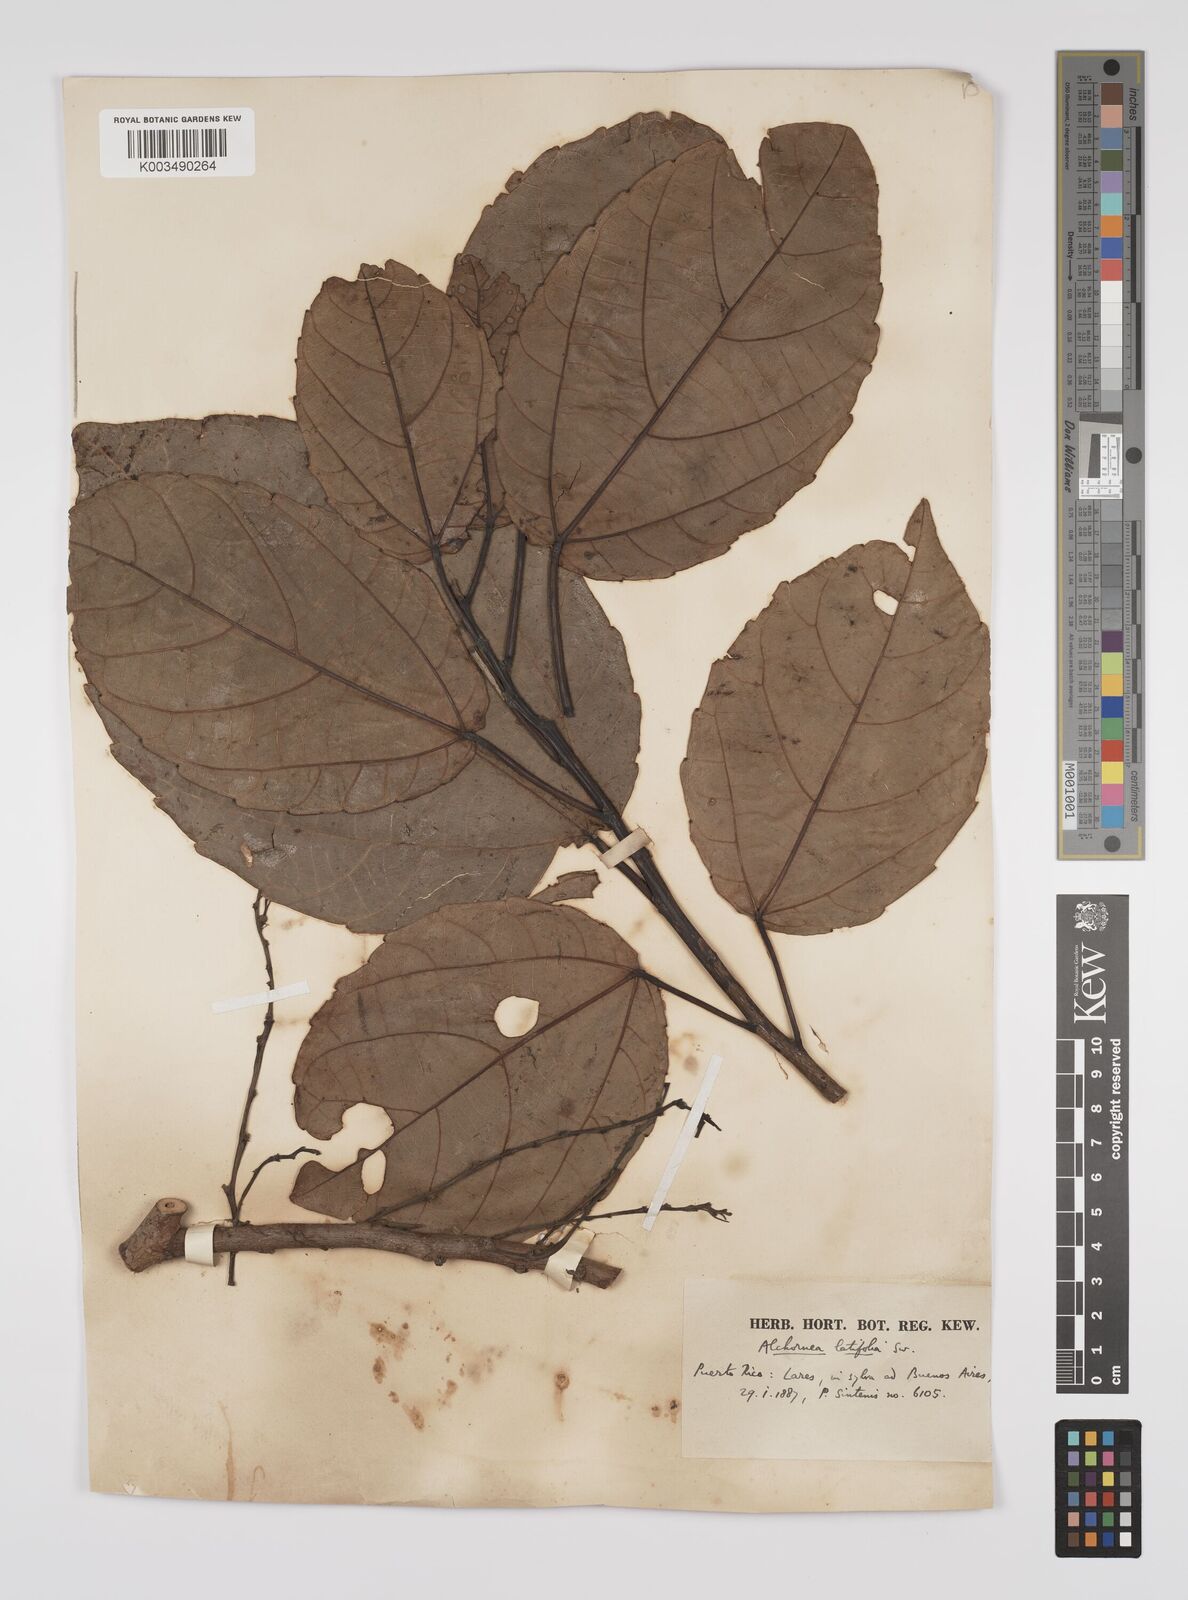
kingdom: Plantae
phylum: Tracheophyta
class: Magnoliopsida
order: Malpighiales
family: Euphorbiaceae
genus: Alchornea
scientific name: Alchornea latifolia
